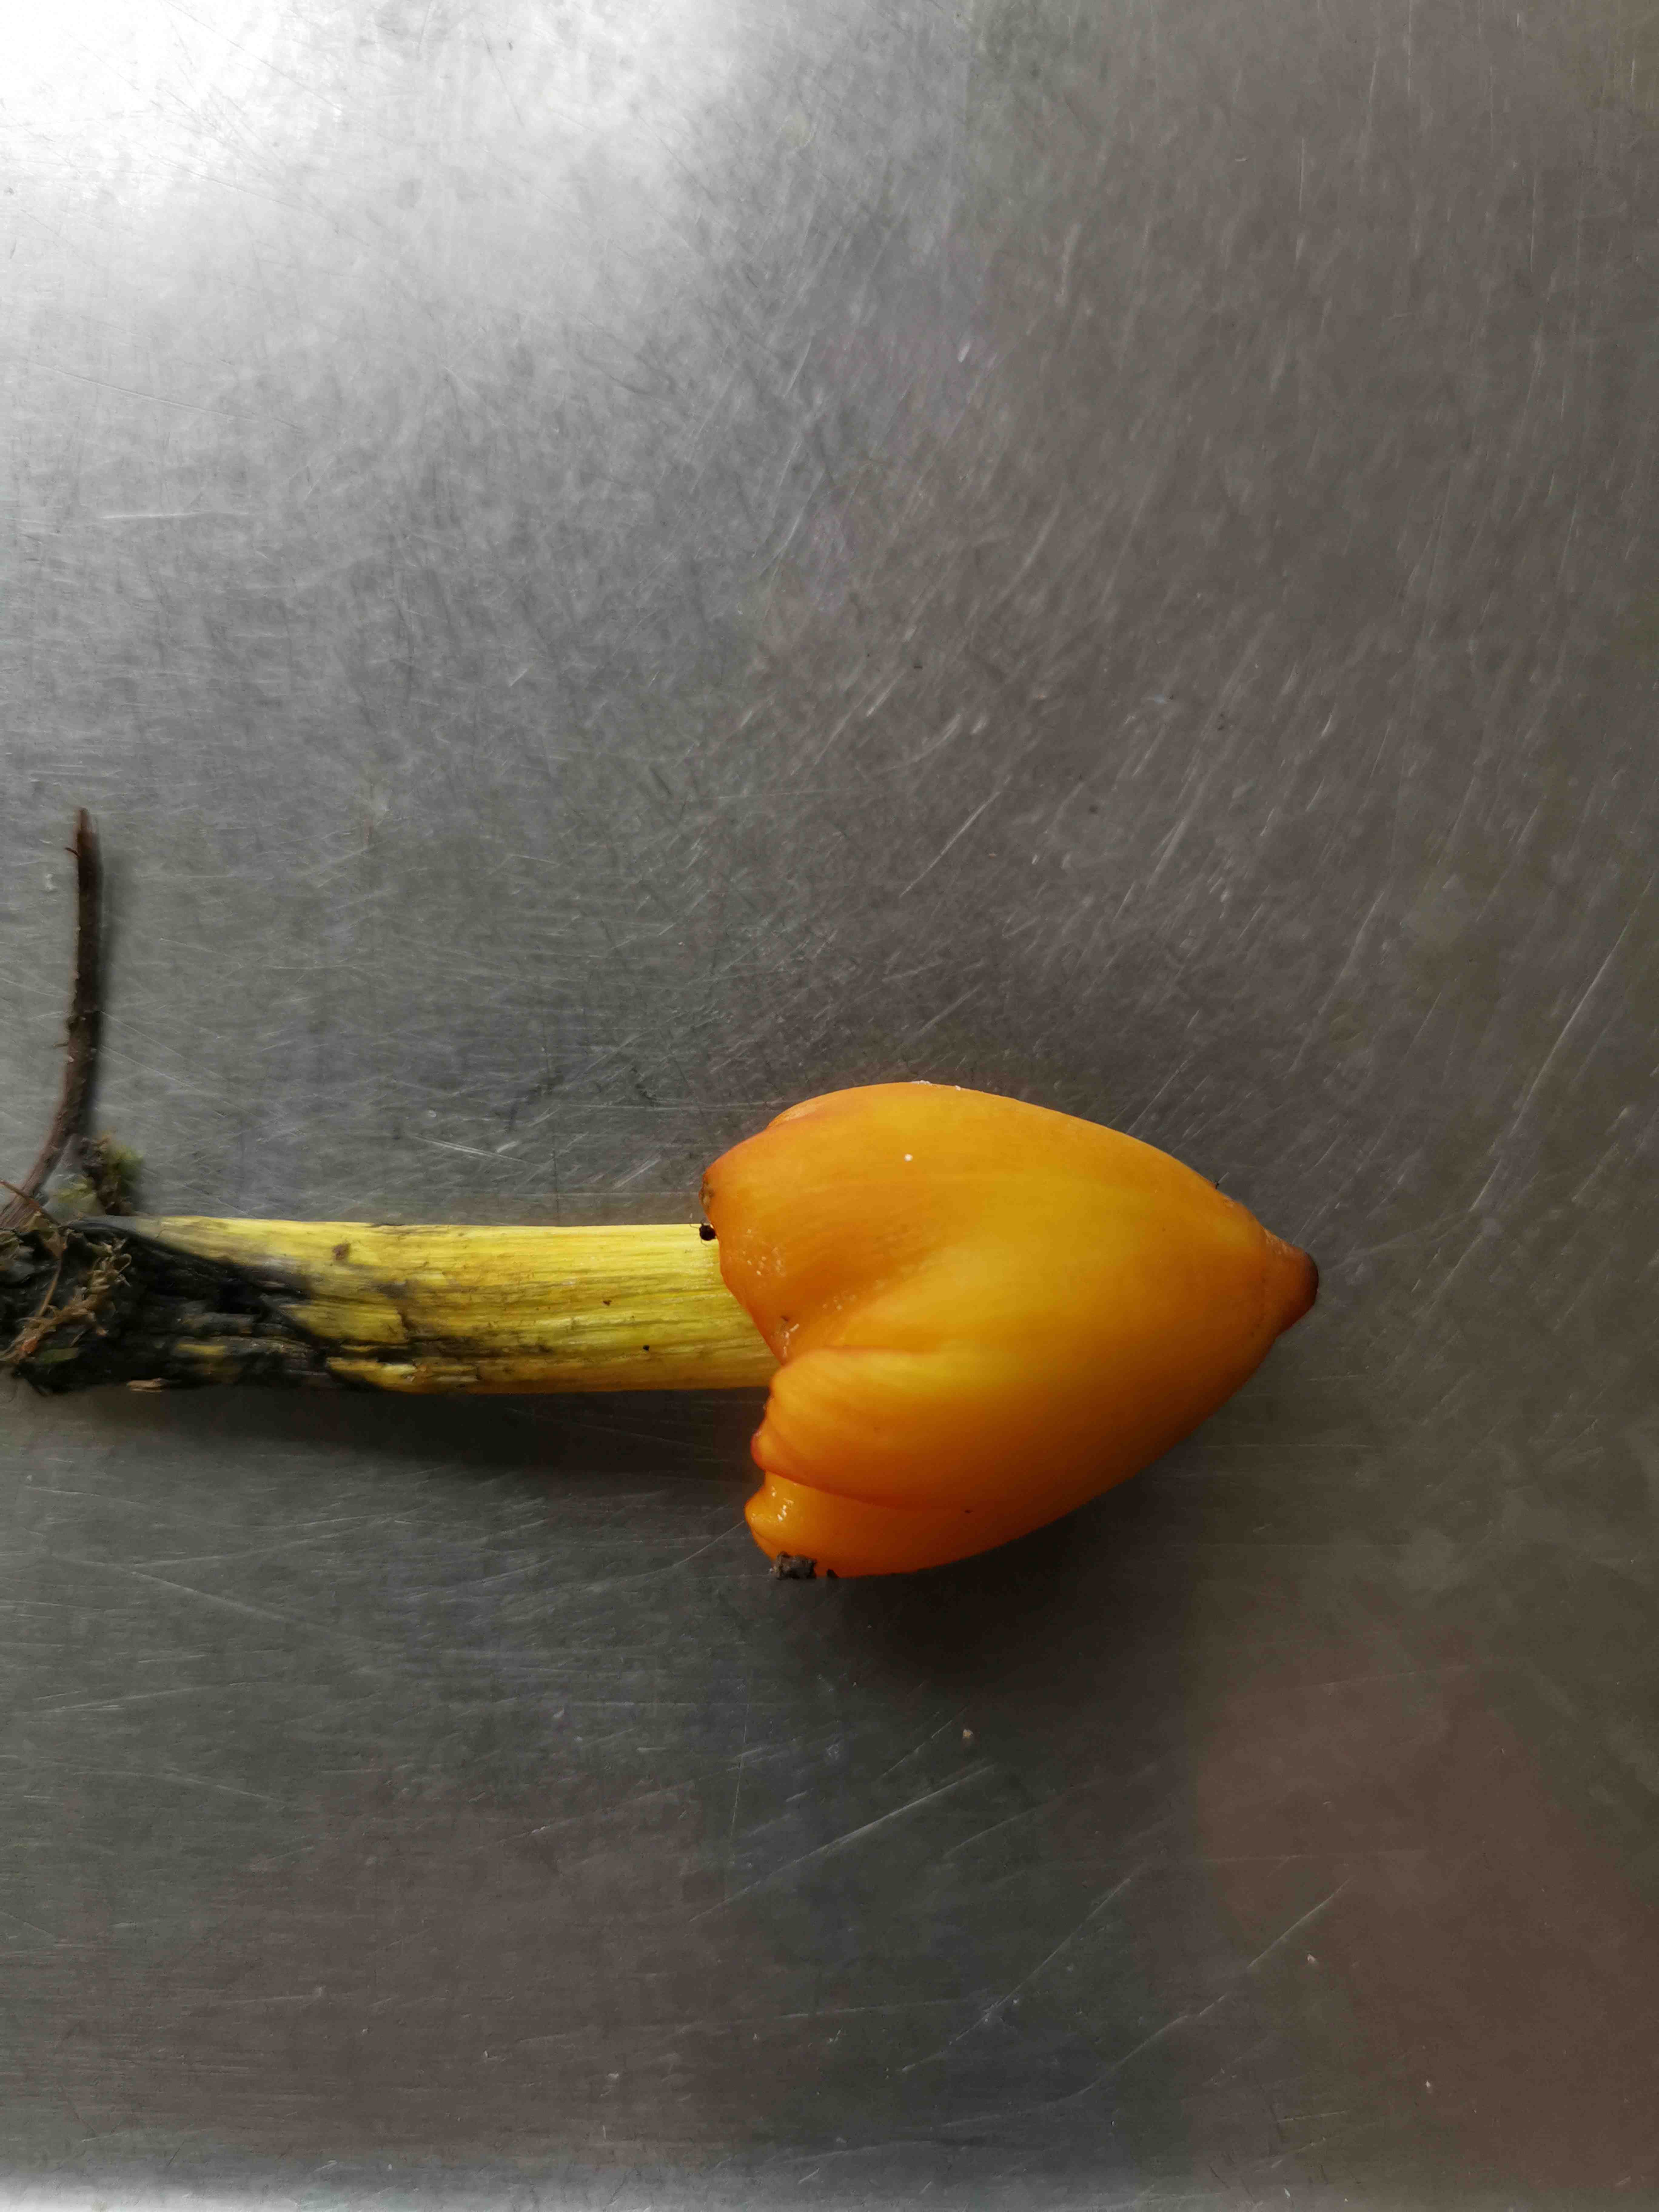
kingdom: Fungi
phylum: Basidiomycota
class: Agaricomycetes
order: Agaricales
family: Hygrophoraceae
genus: Hygrocybe
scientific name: Hygrocybe conica
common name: kegle-vokshat
